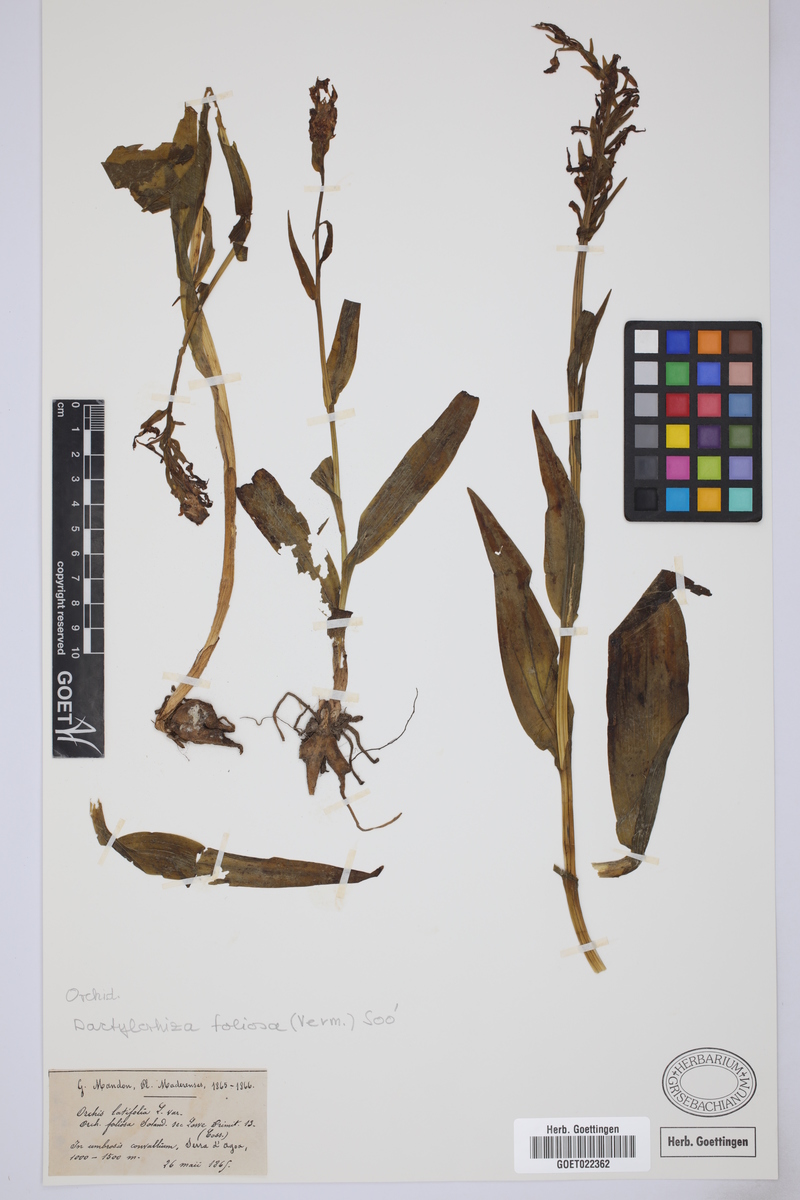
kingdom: Plantae
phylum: Tracheophyta
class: Liliopsida
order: Asparagales
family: Orchidaceae
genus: Dactylorhiza
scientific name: Dactylorhiza foliosa
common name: Richly-leaved dactylorhiza
